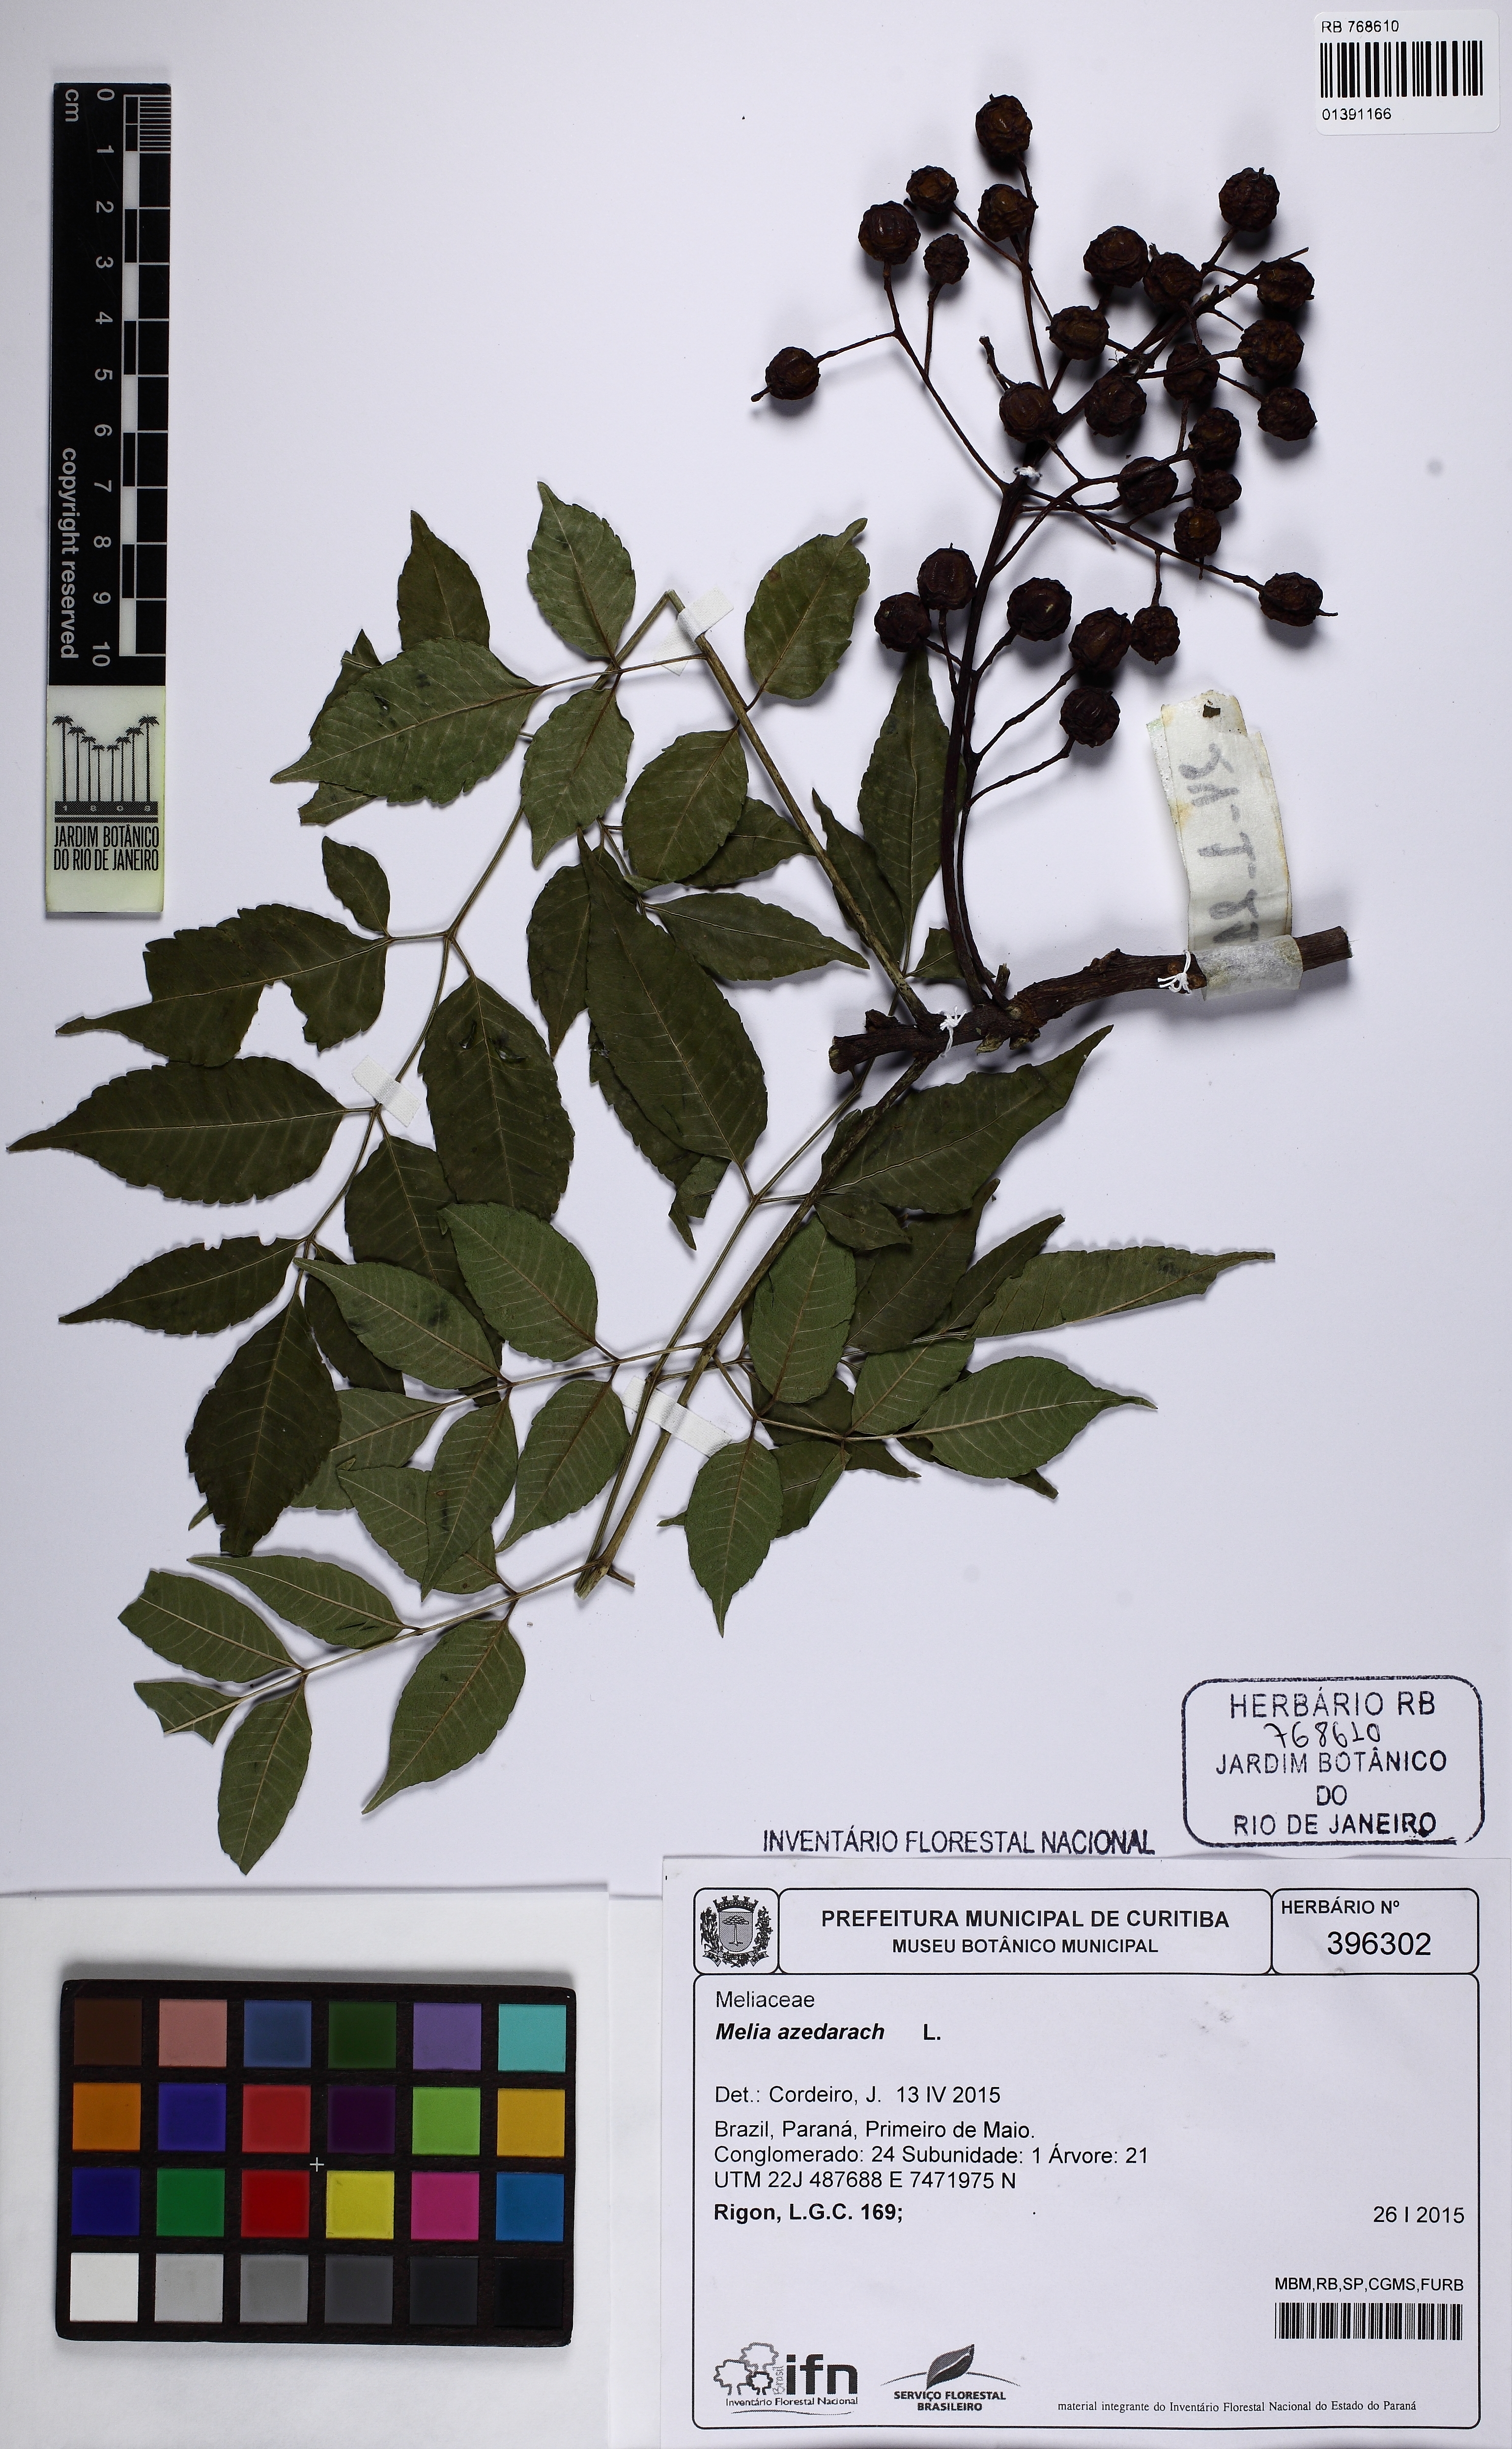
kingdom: Plantae
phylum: Tracheophyta
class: Magnoliopsida
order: Sapindales
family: Meliaceae
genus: Melia
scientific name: Melia azedarach
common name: Chinaberrytree
